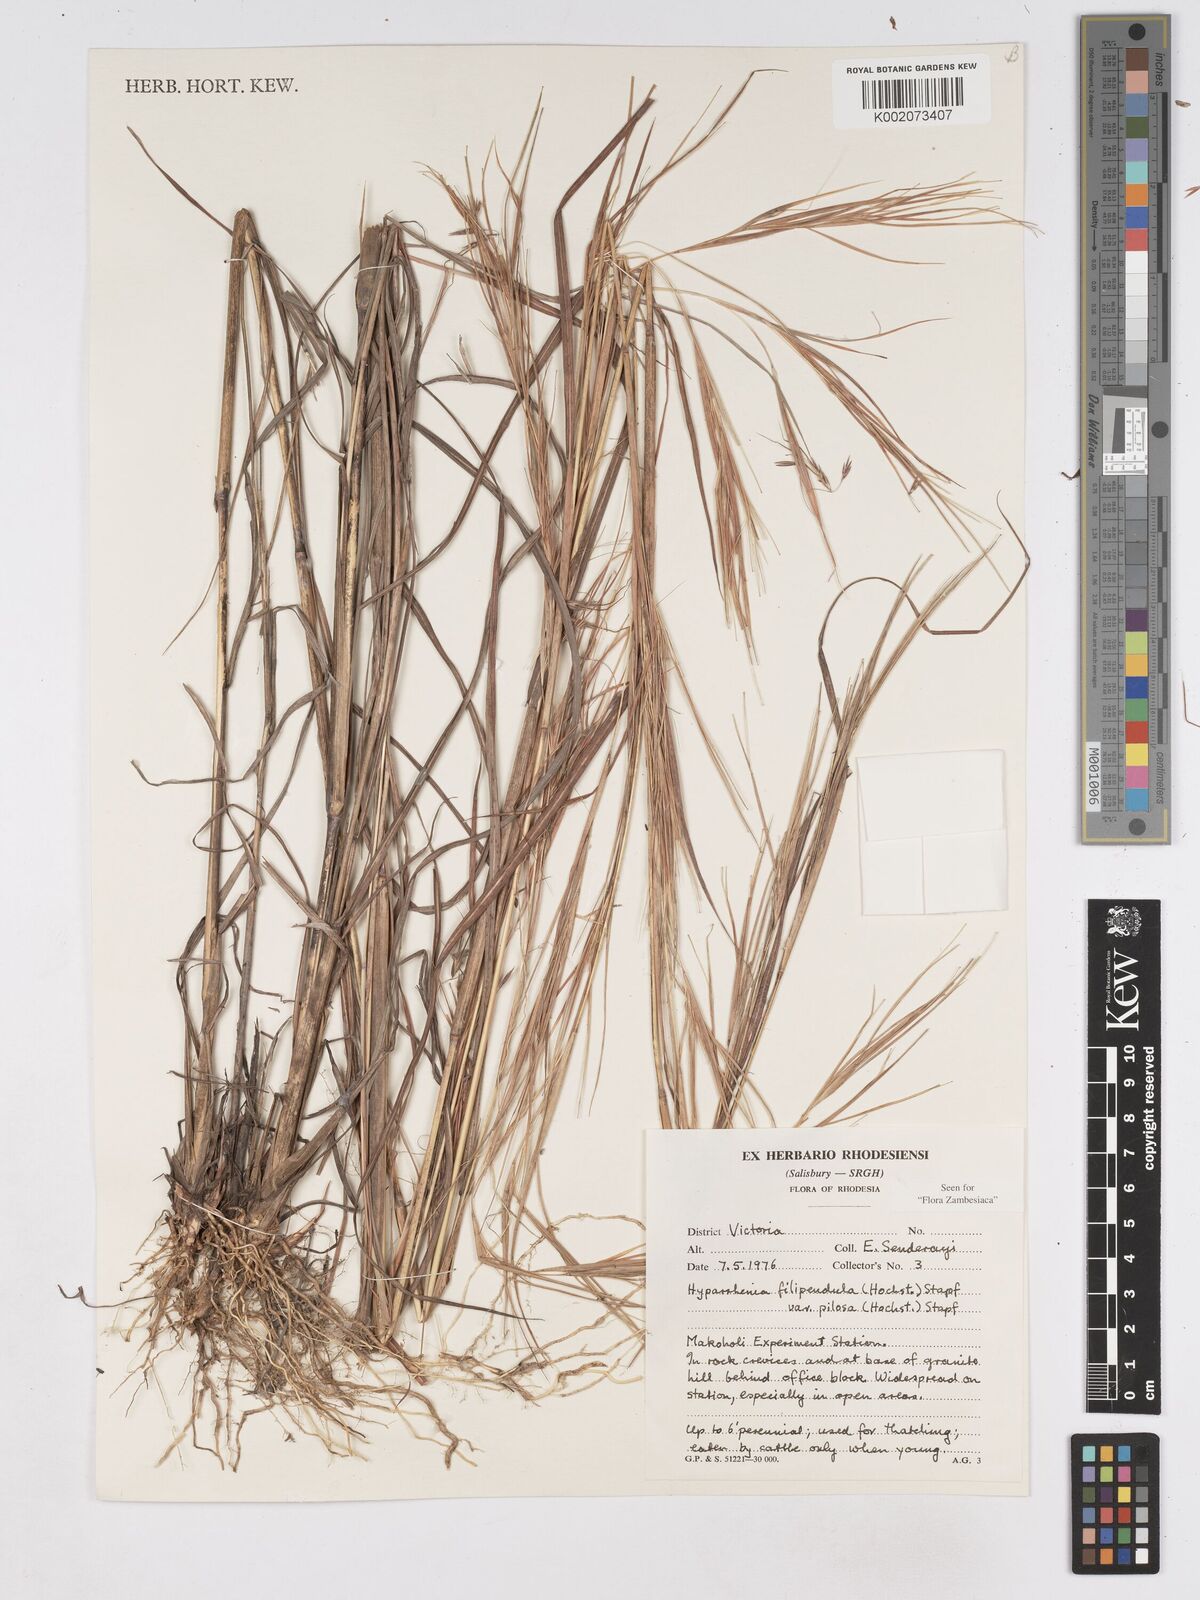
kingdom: Plantae
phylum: Tracheophyta
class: Liliopsida
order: Poales
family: Poaceae
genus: Hyparrhenia
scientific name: Hyparrhenia filipendula
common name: Tambookie grass
